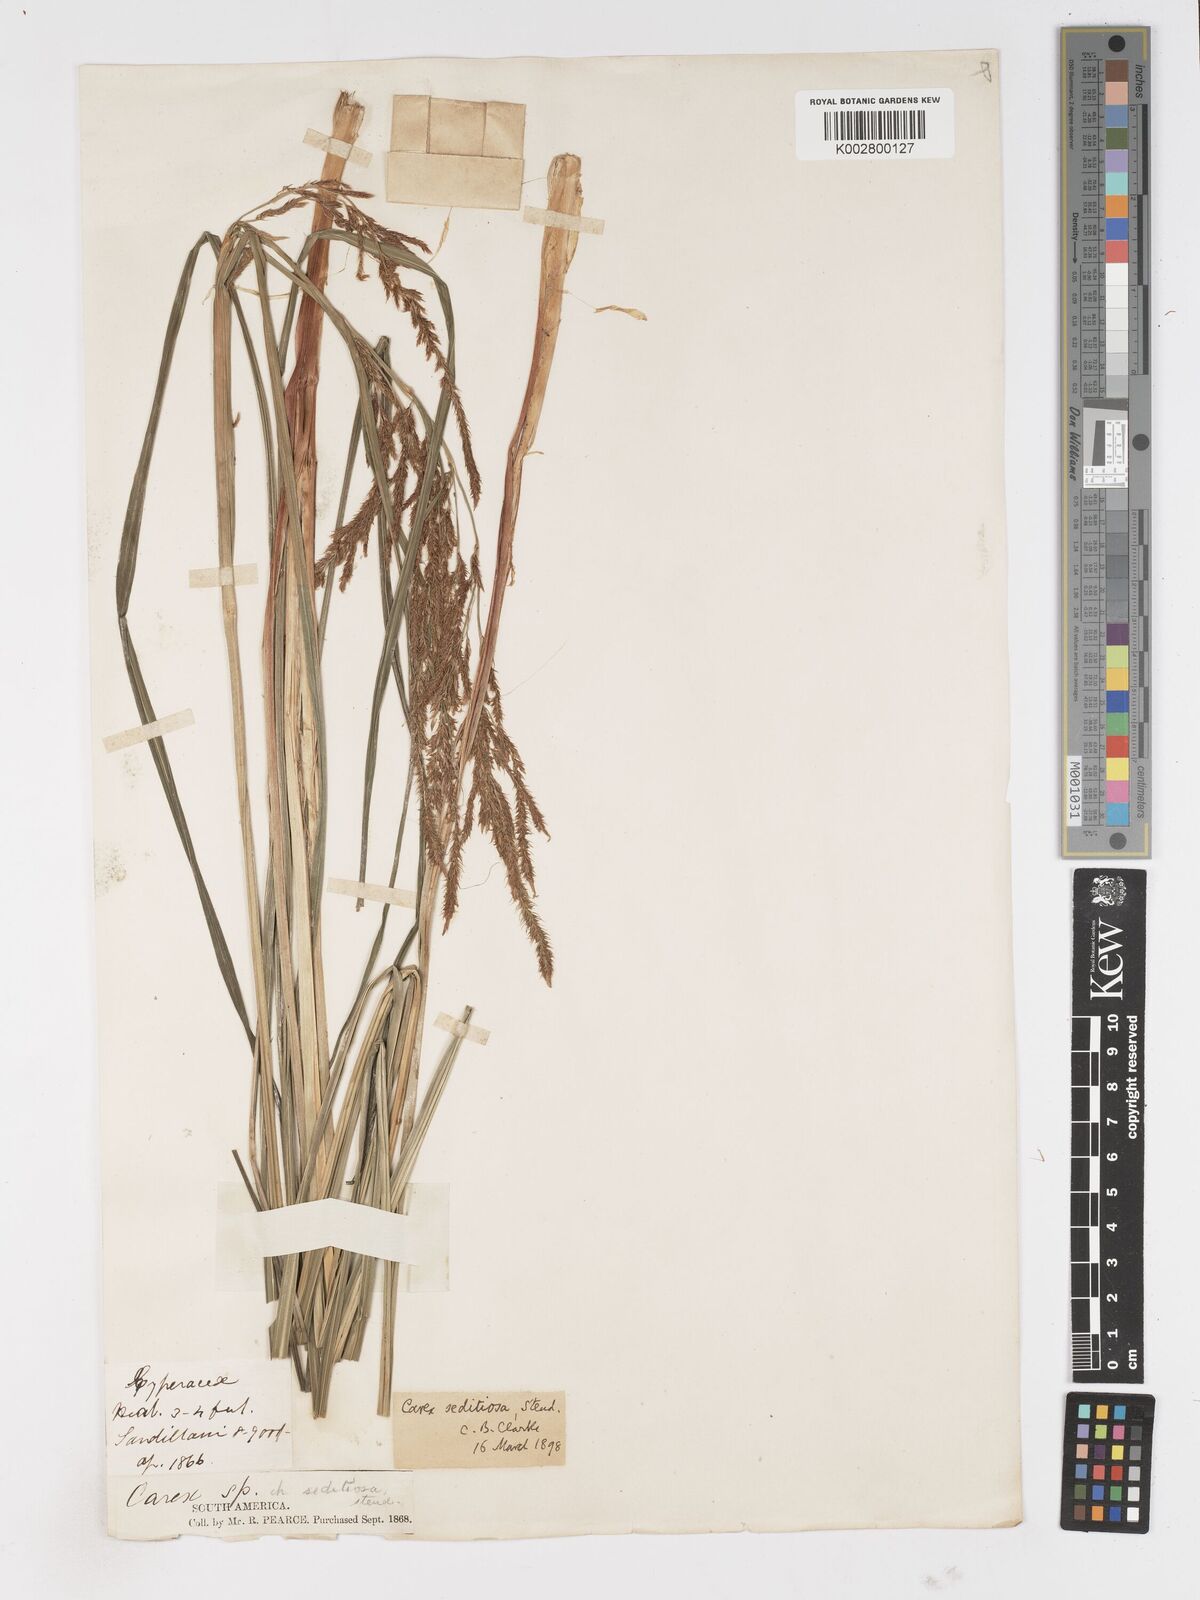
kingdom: Plantae
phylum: Tracheophyta
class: Liliopsida
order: Poales
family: Cyperaceae
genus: Carex
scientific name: Carex fecunda
